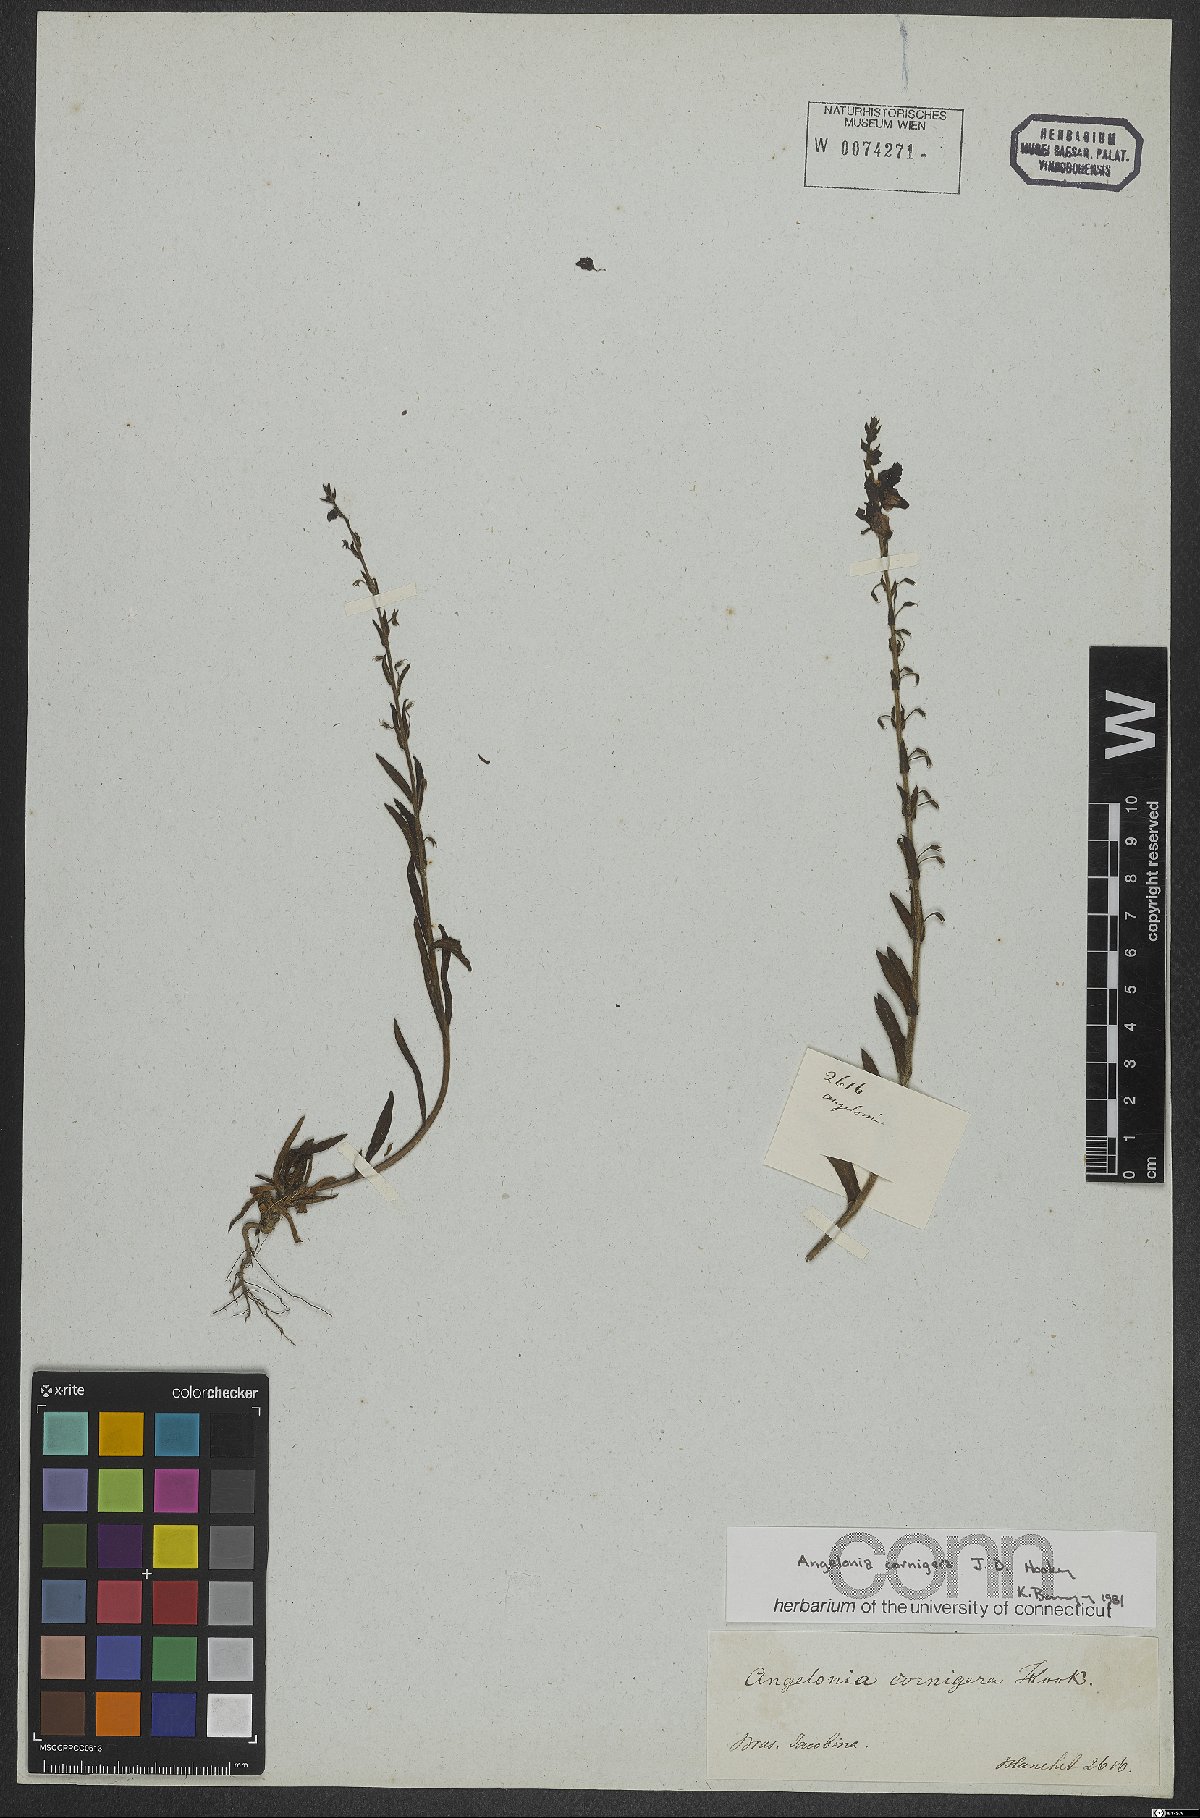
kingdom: Plantae
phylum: Tracheophyta
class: Magnoliopsida
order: Lamiales
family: Plantaginaceae
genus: Angelonia
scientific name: Angelonia cornigera
